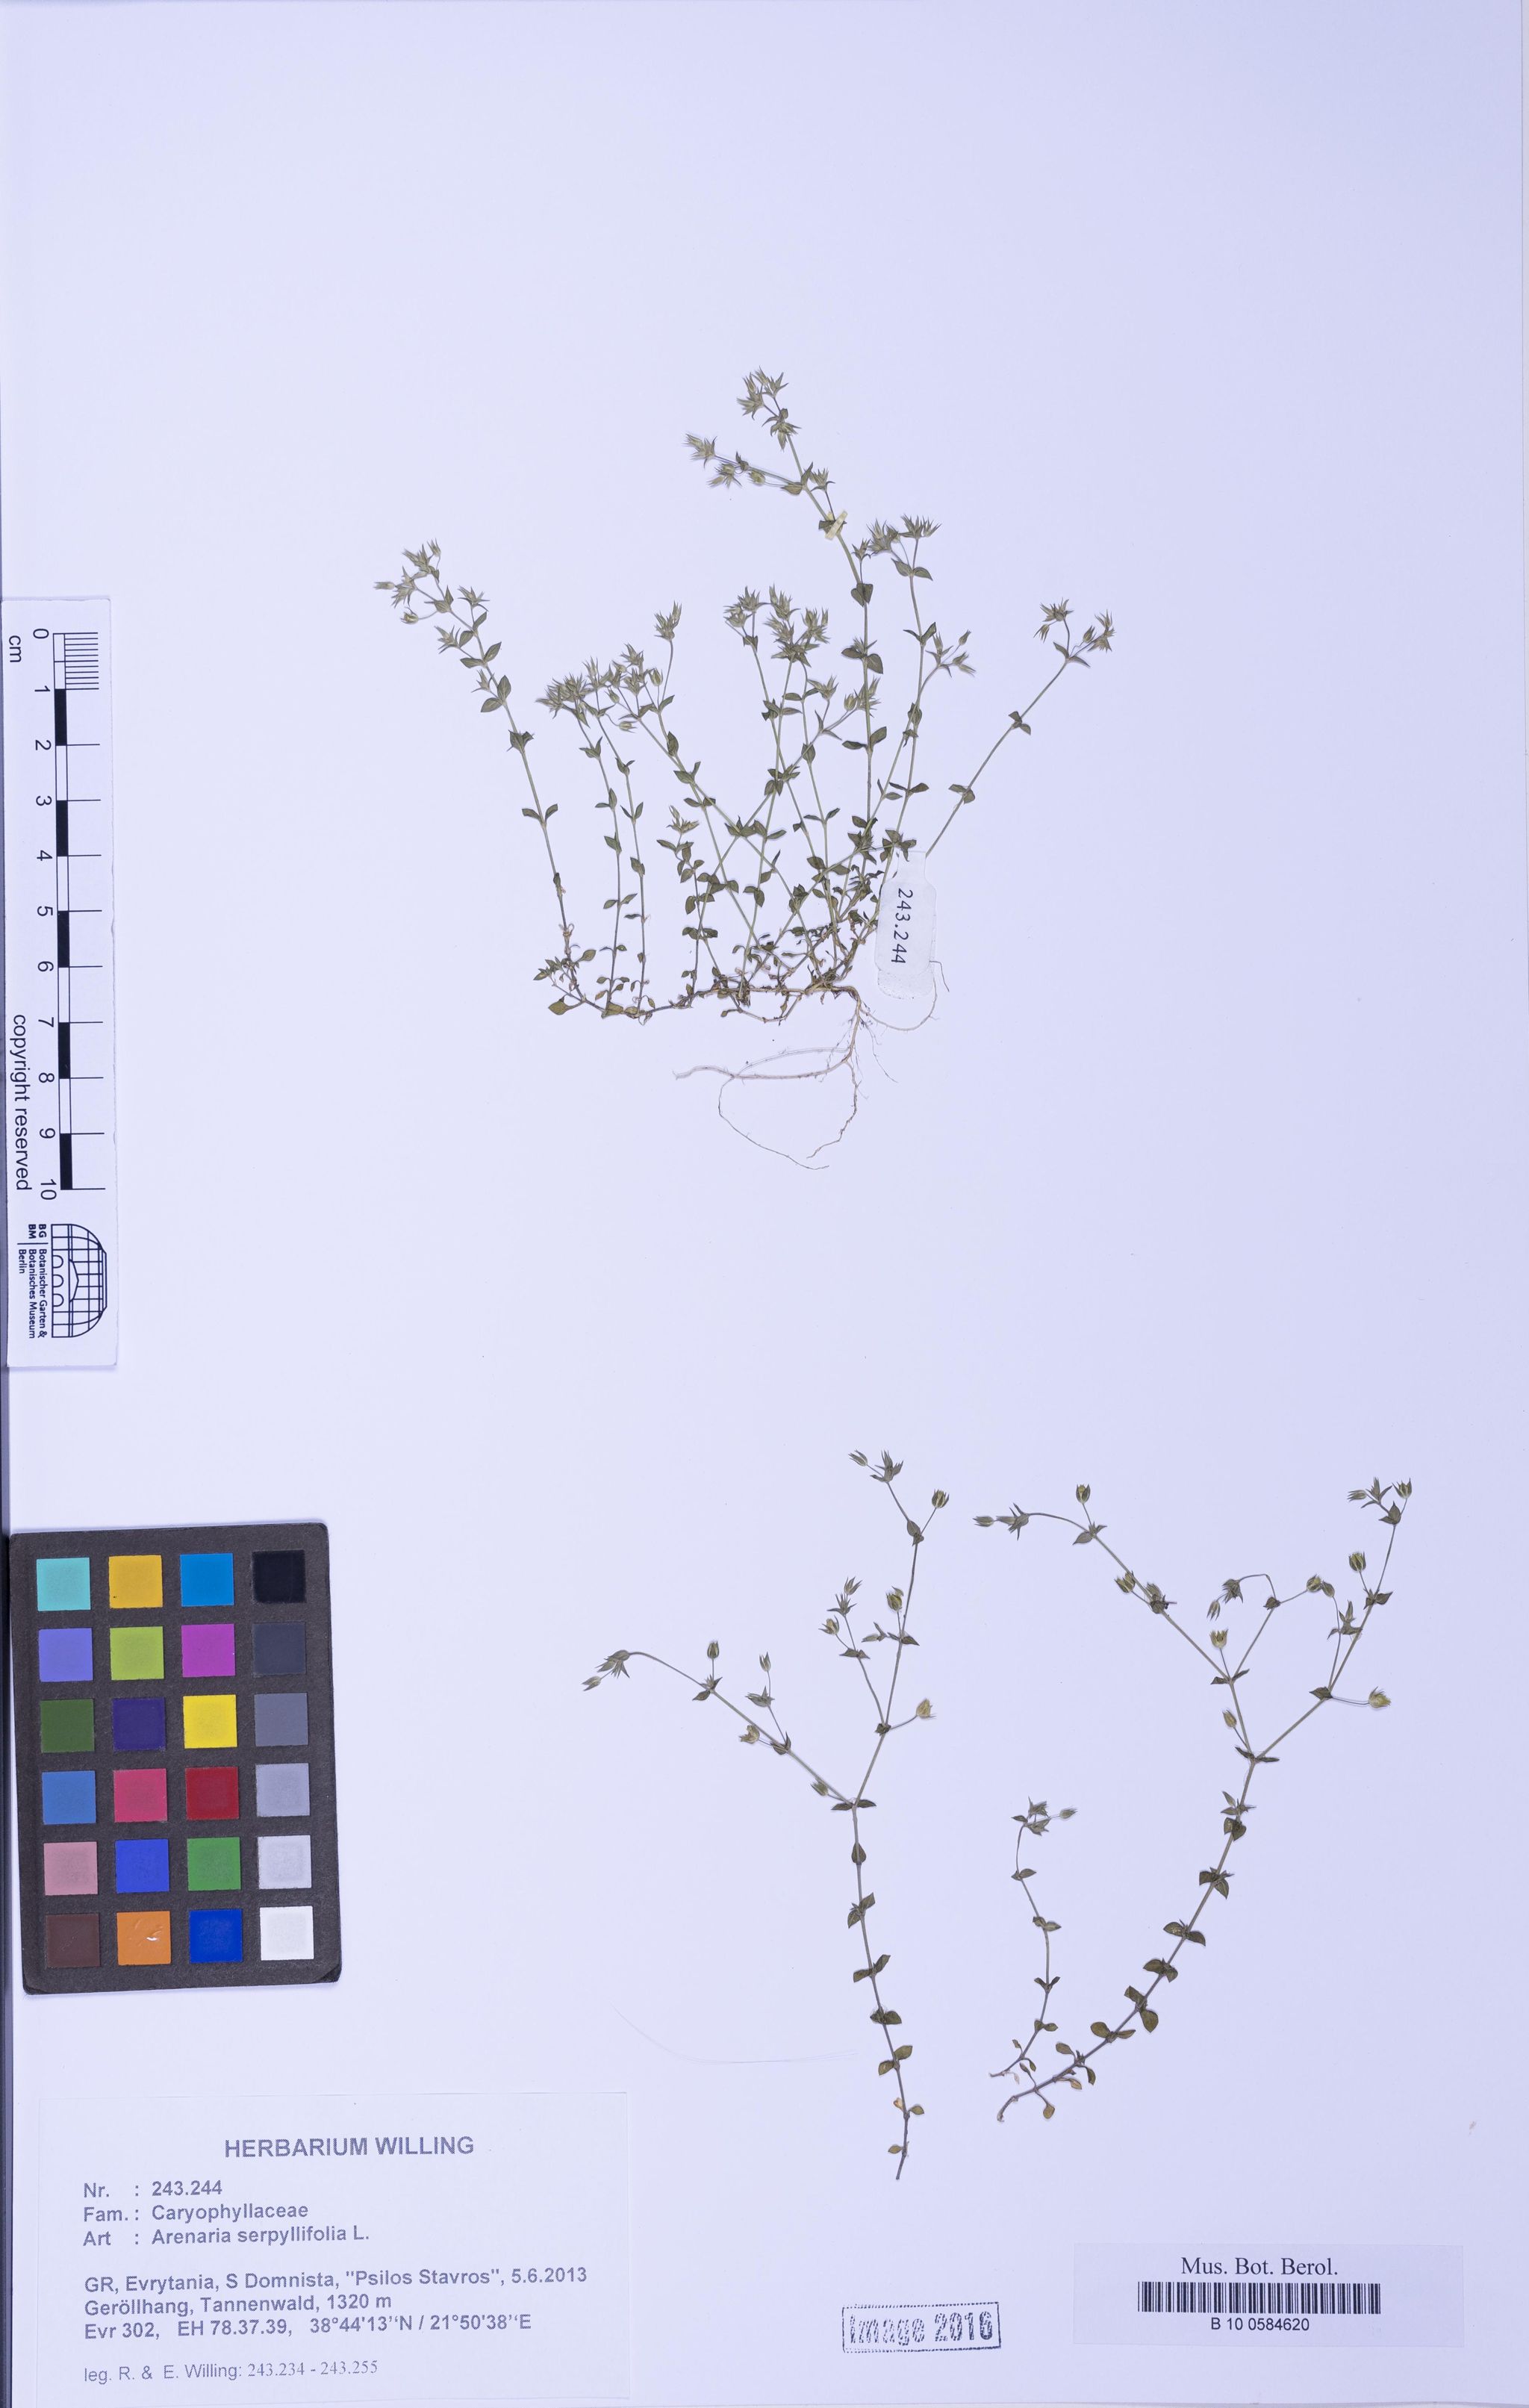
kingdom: Plantae
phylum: Tracheophyta
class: Magnoliopsida
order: Caryophyllales
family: Caryophyllaceae
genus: Arenaria
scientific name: Arenaria serpyllifolia
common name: Thyme-leaved sandwort
